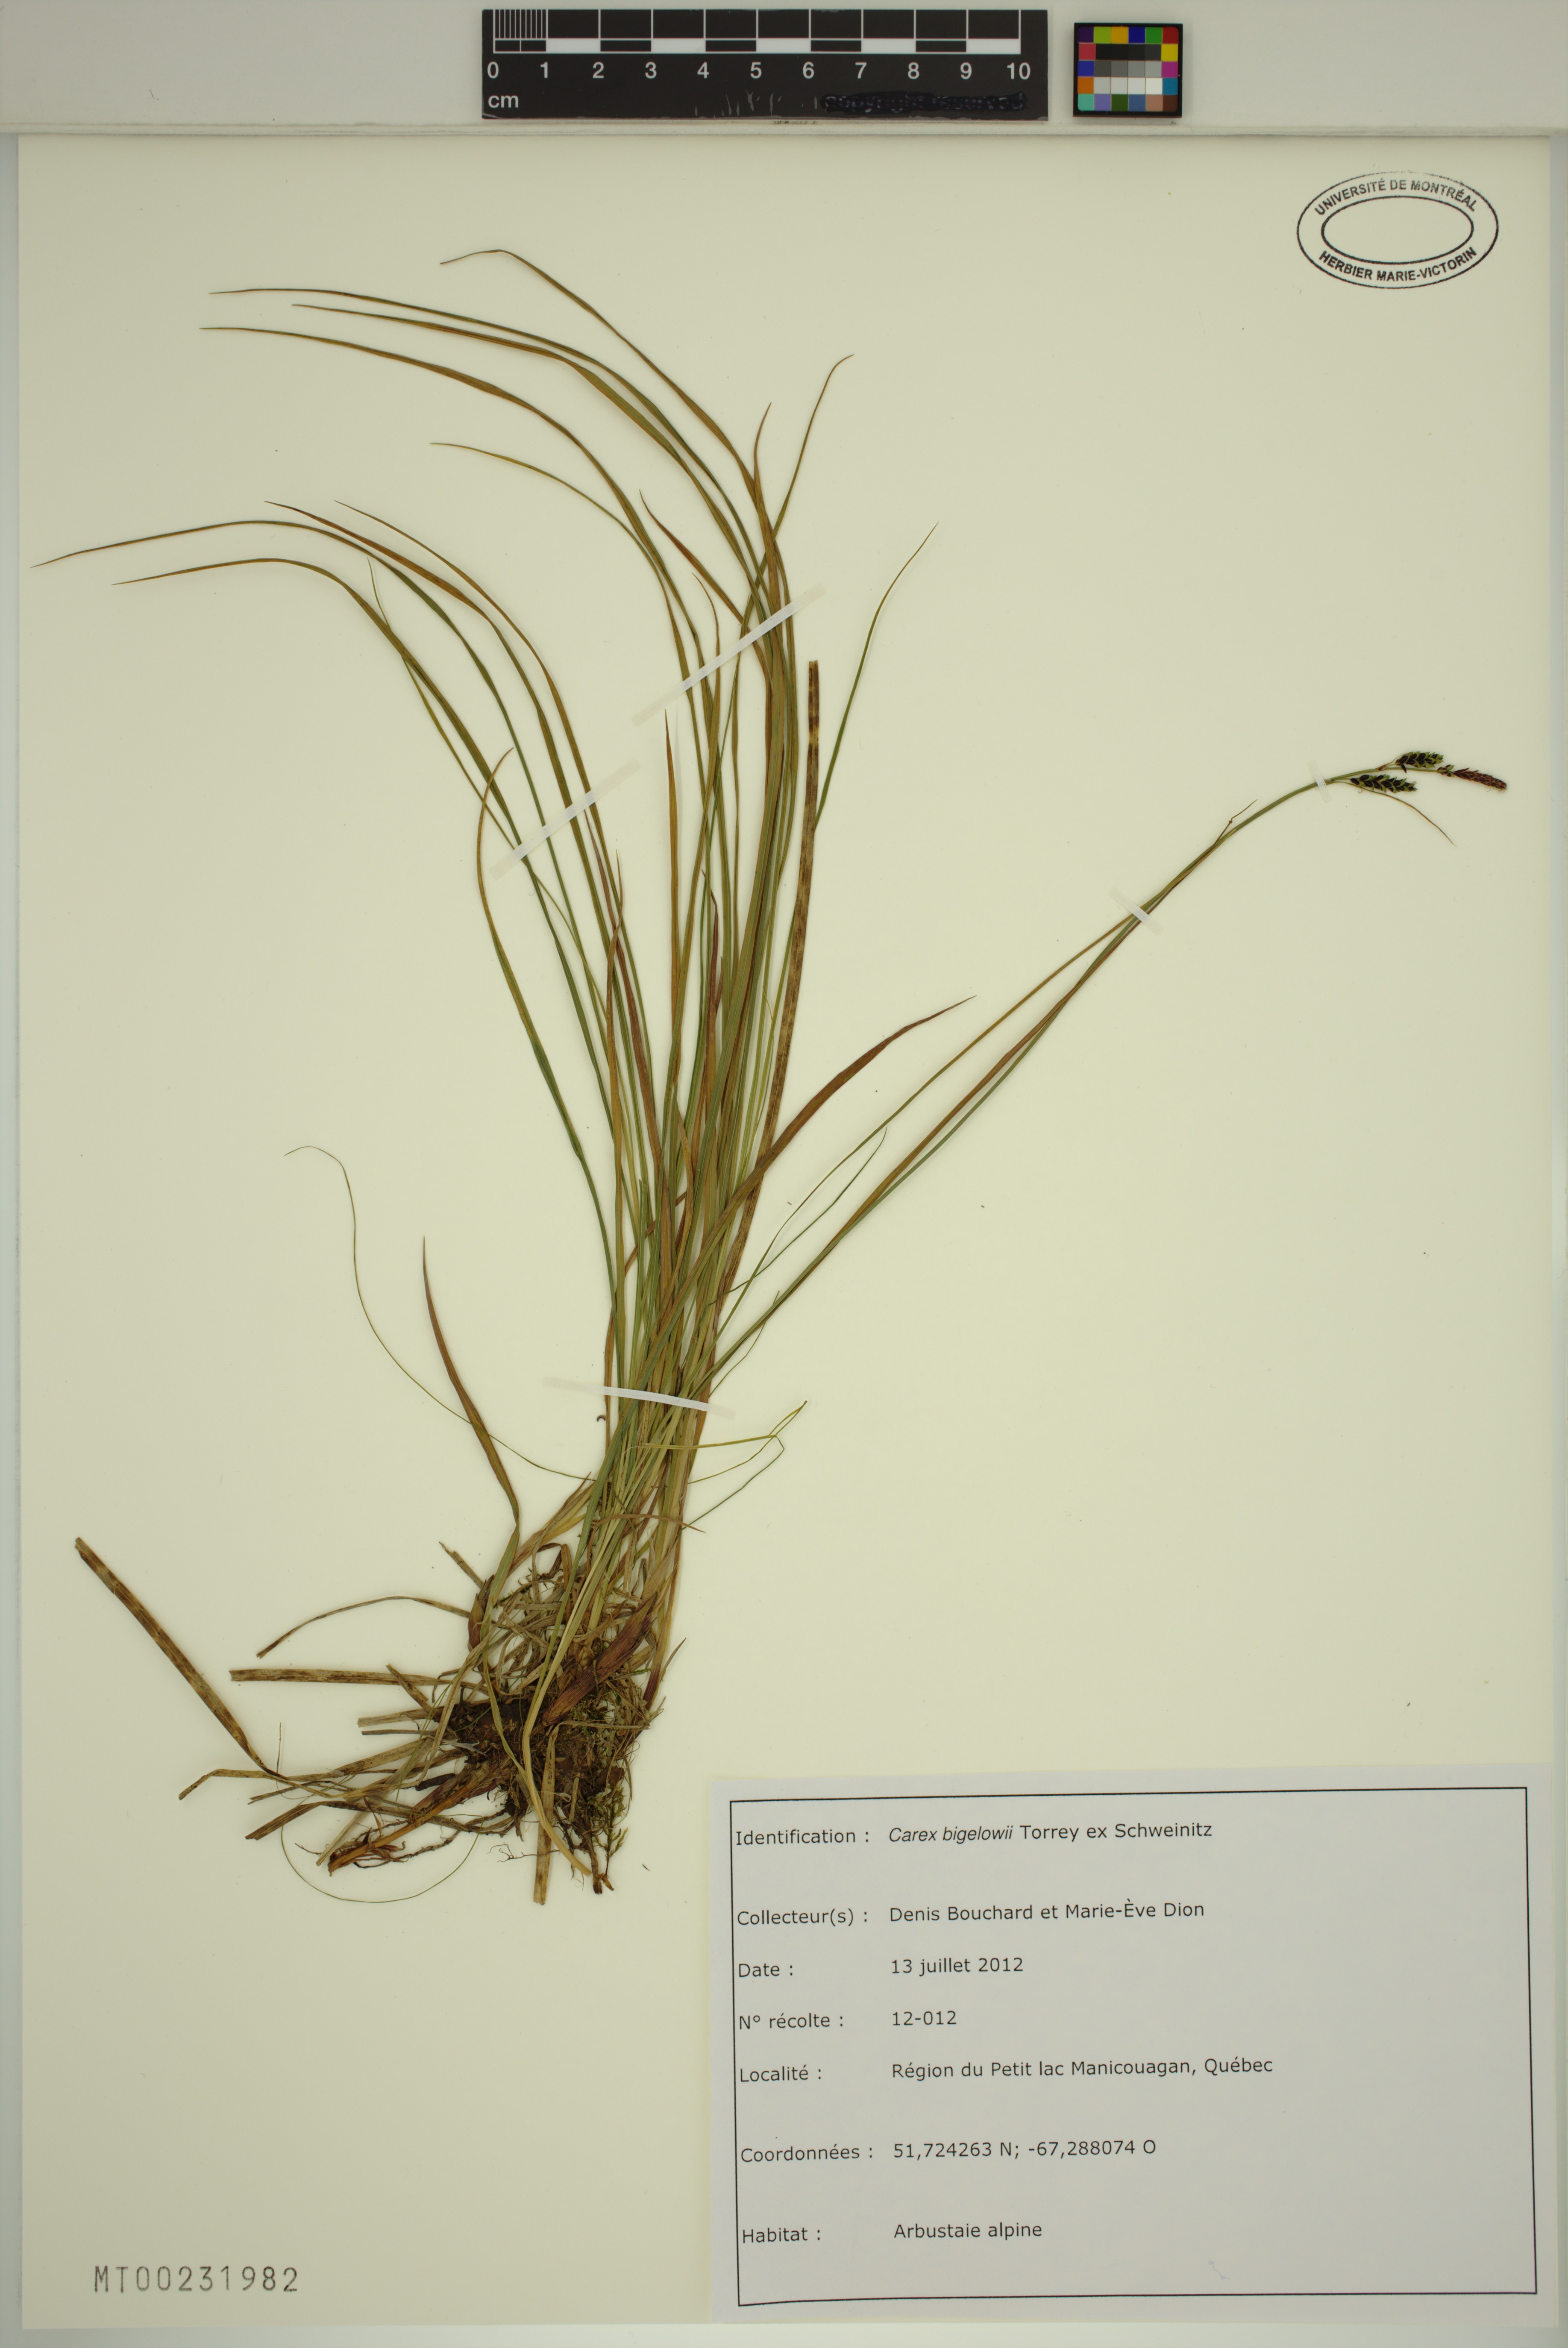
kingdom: Plantae
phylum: Tracheophyta
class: Liliopsida
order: Poales
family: Cyperaceae
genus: Carex
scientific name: Carex bigelowii
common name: Stiff sedge
